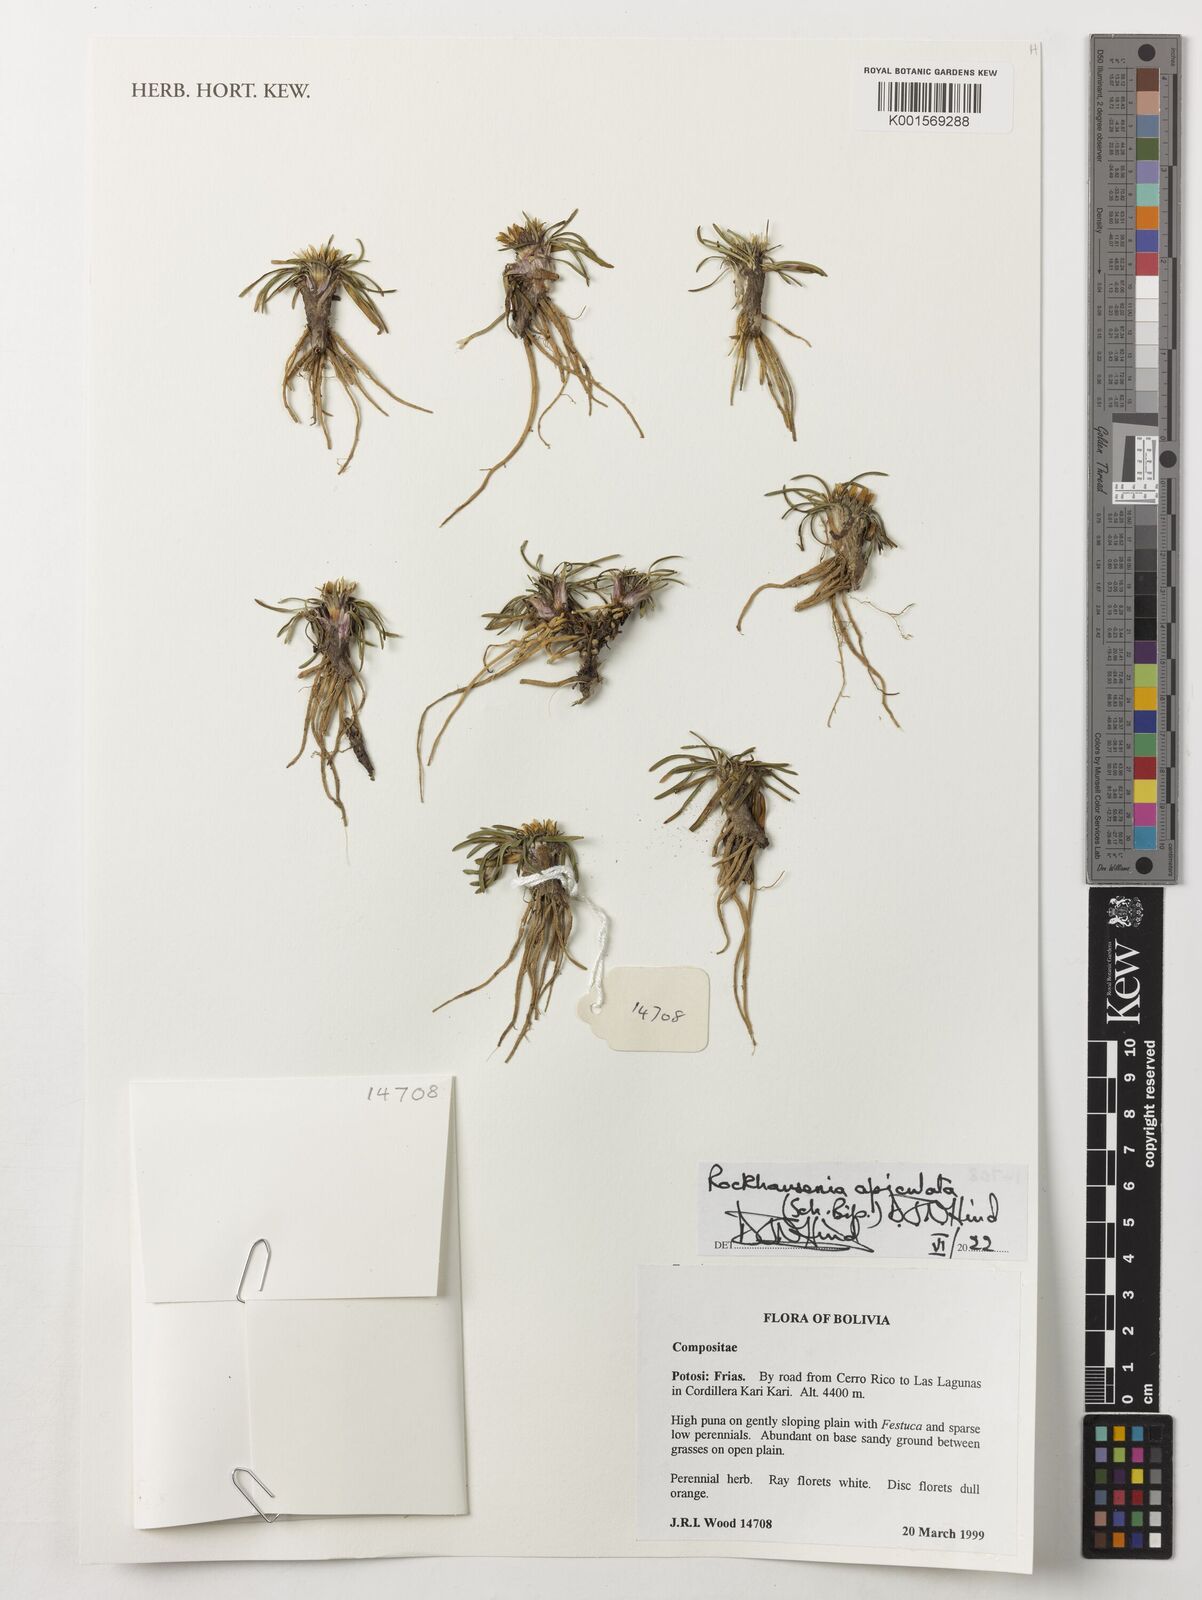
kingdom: Plantae
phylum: Tracheophyta
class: Magnoliopsida
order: Asterales
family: Asteraceae
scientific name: Asteraceae
